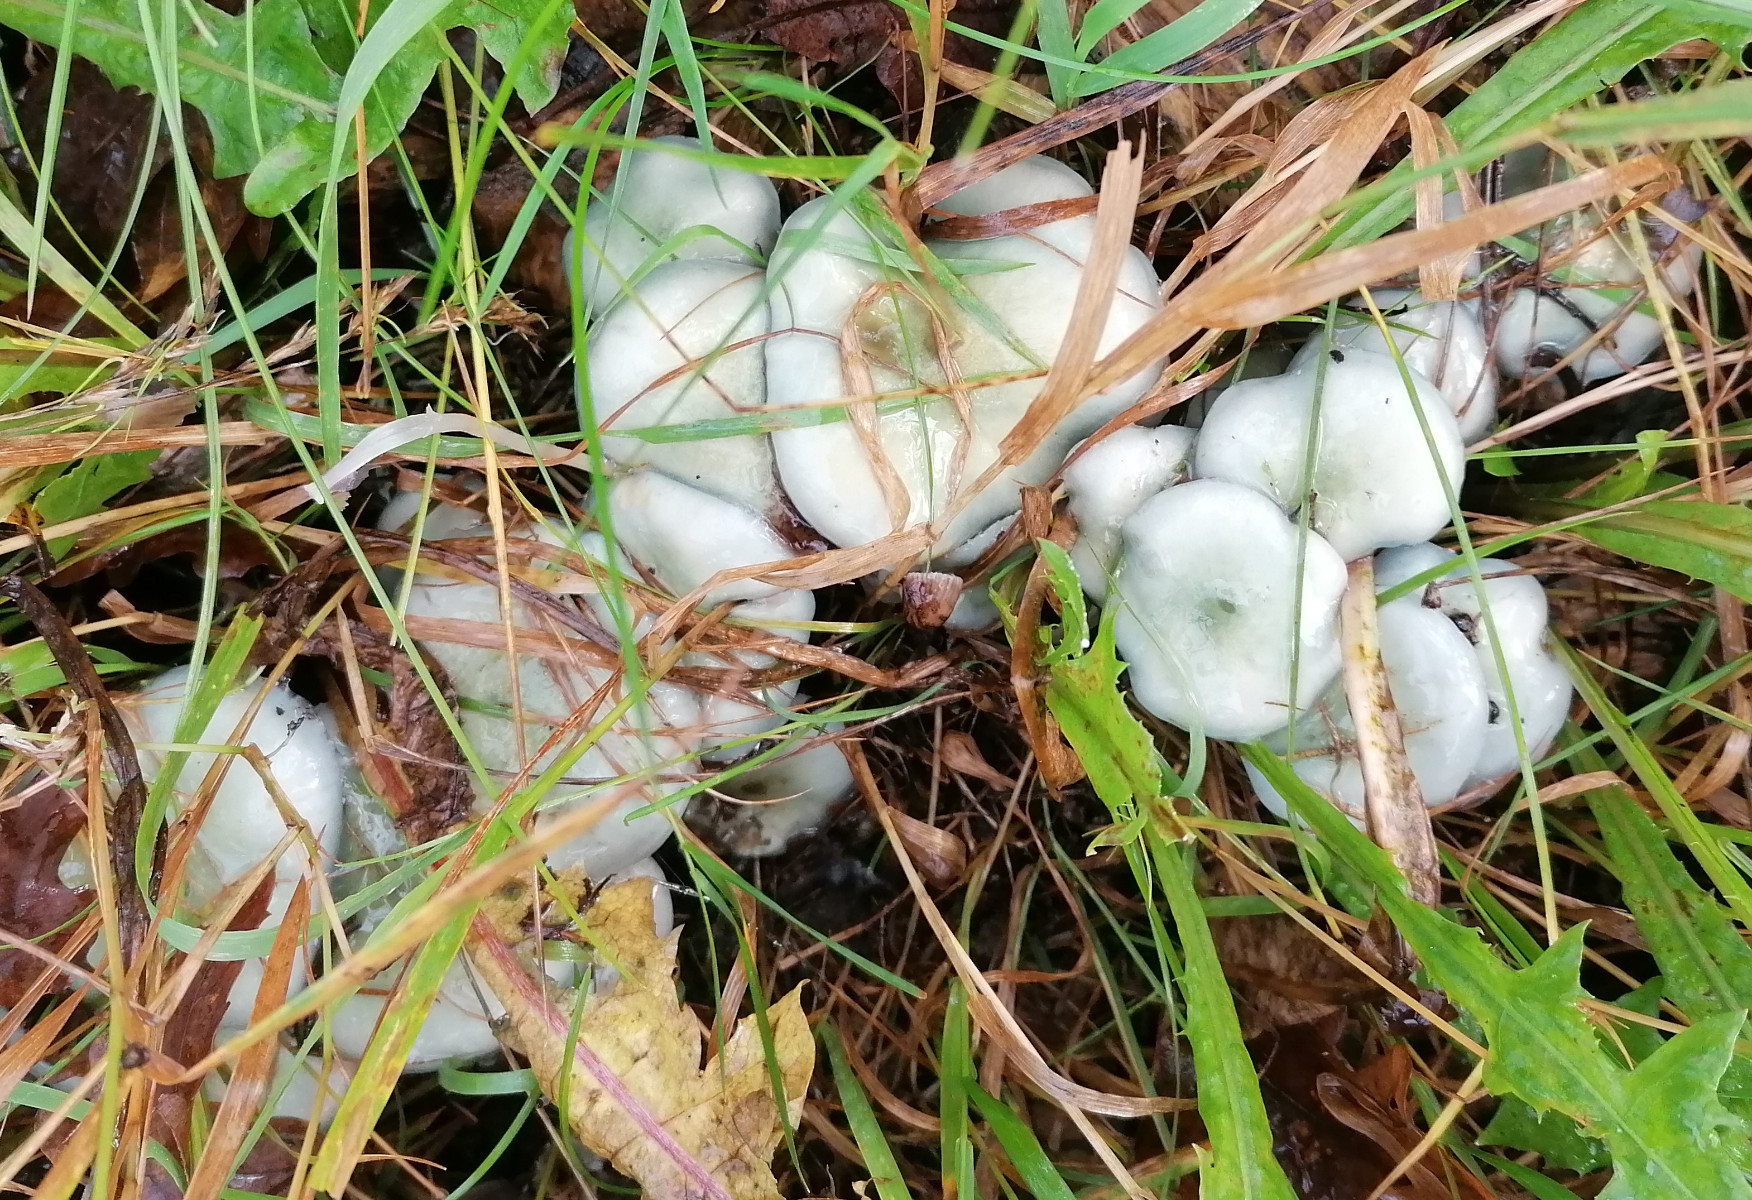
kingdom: Fungi
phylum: Basidiomycota
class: Agaricomycetes
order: Agaricales
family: Strophariaceae
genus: Stropharia
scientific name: Stropharia cyanea
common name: blågrøn bredblad
